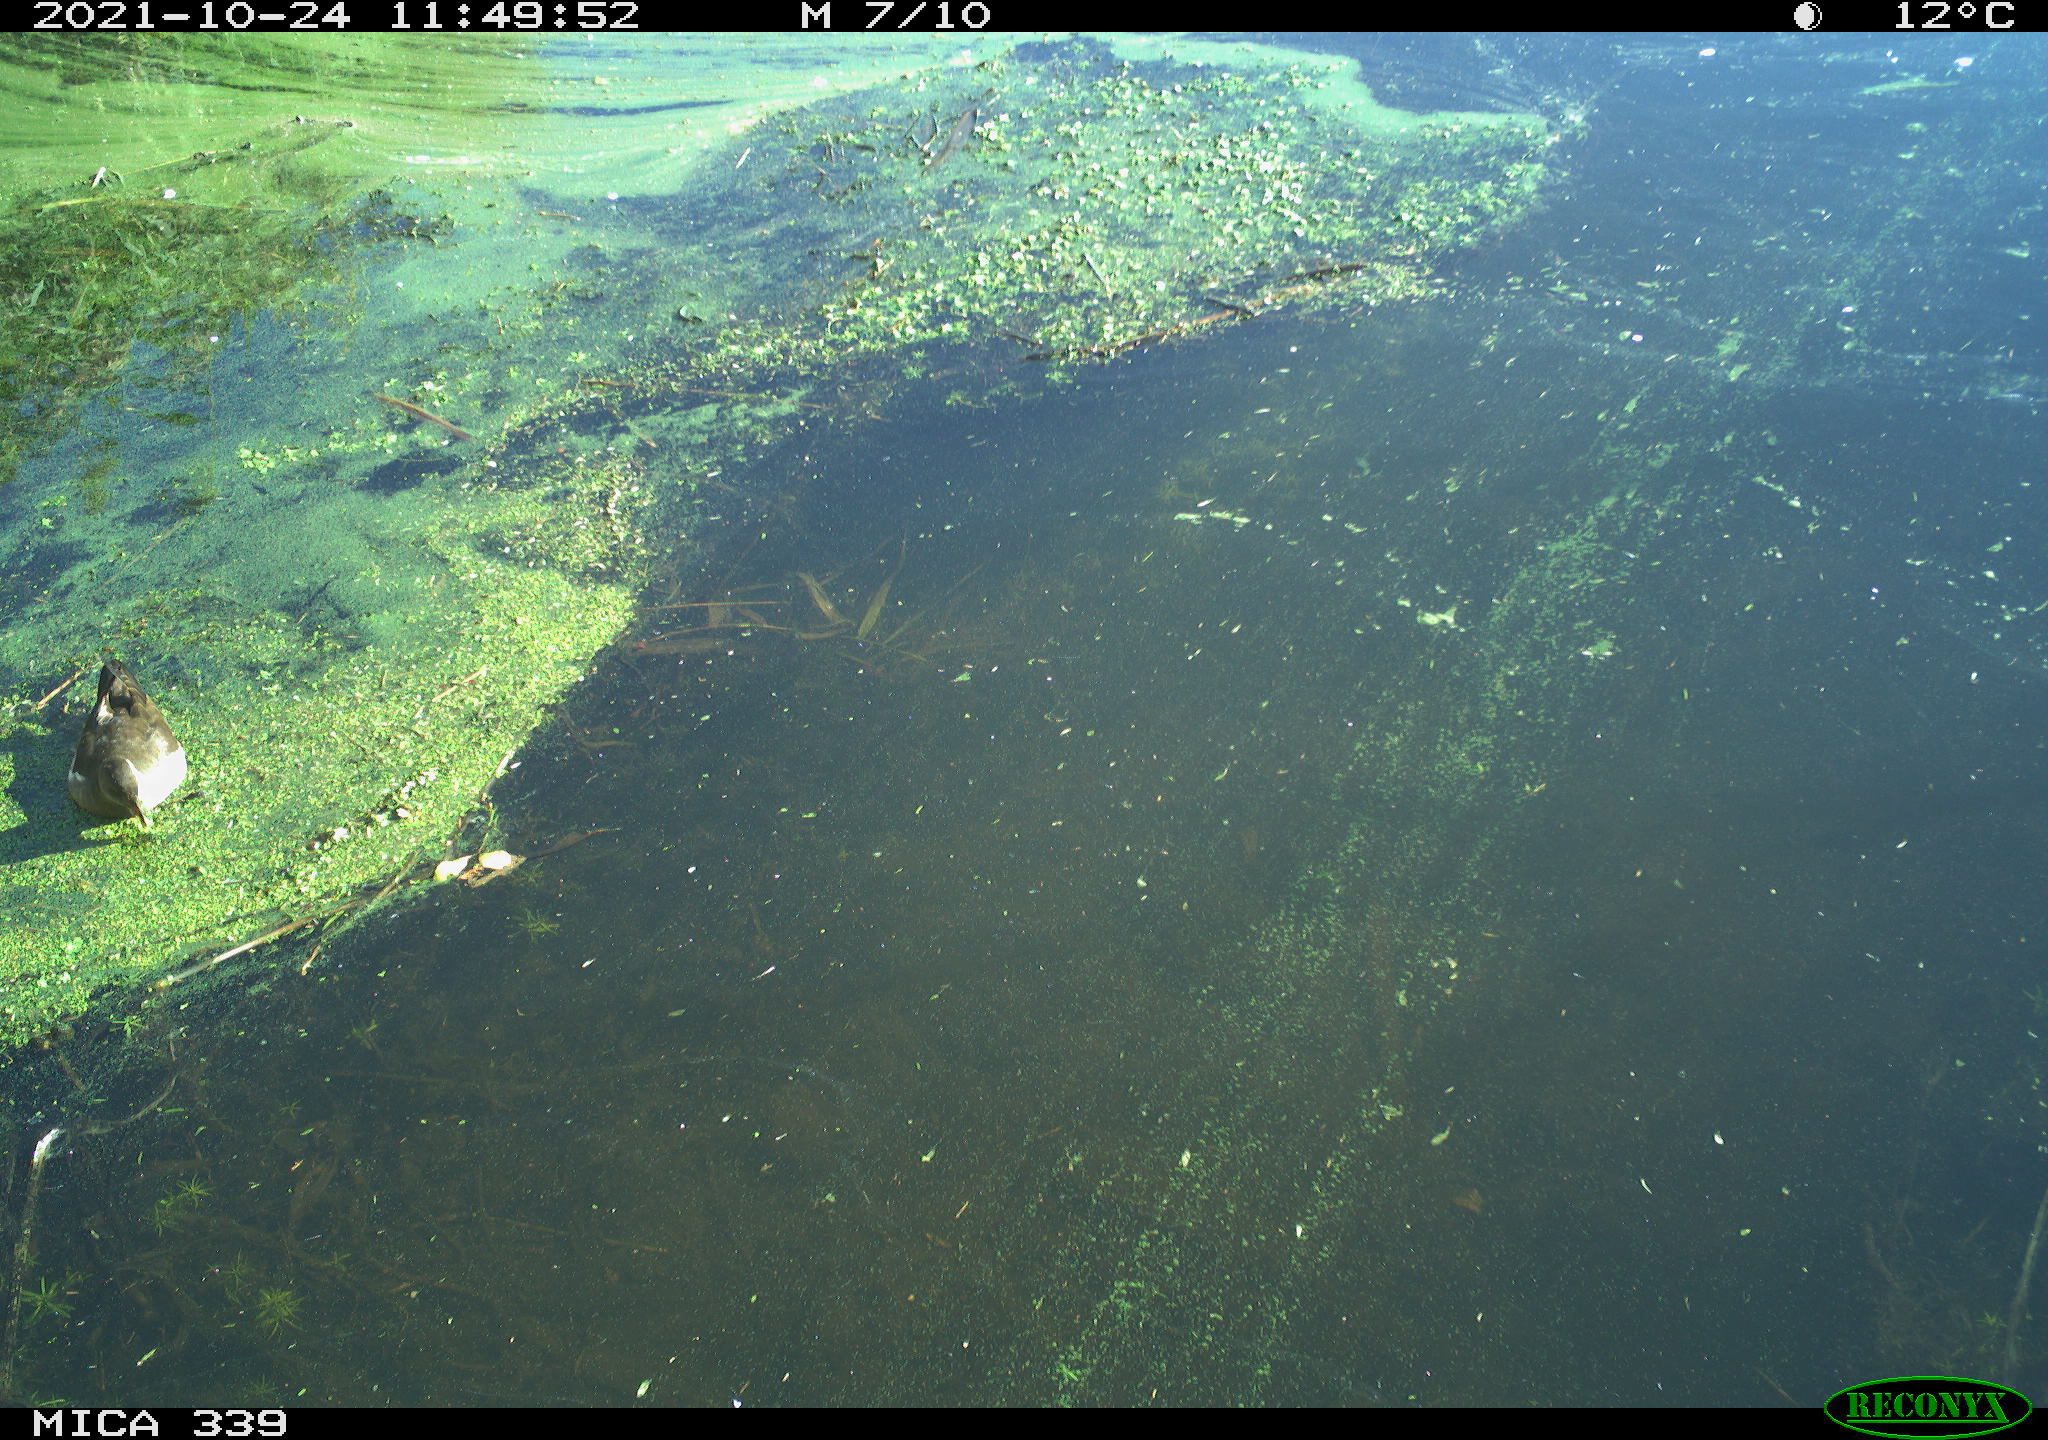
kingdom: Animalia
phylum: Chordata
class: Aves
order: Gruiformes
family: Rallidae
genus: Gallinula
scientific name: Gallinula chloropus
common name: Common moorhen
